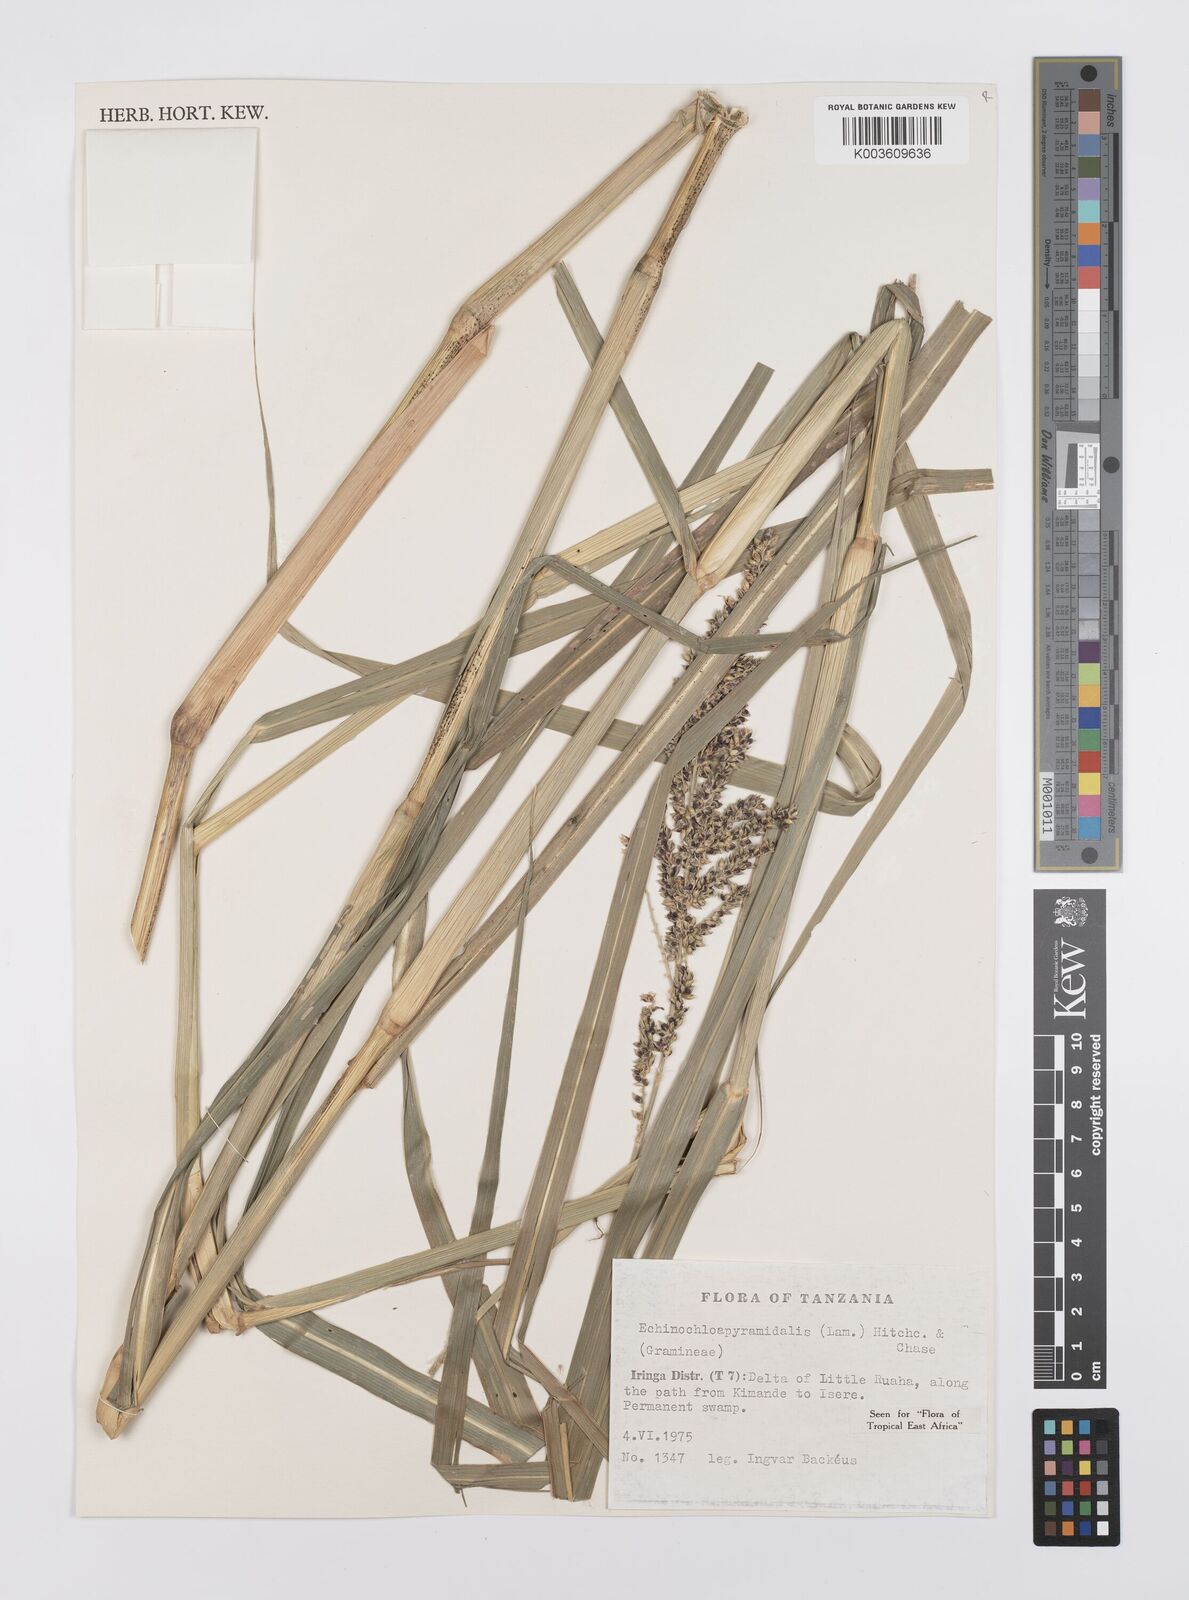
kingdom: Plantae
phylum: Tracheophyta
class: Liliopsida
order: Poales
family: Poaceae
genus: Echinochloa
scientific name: Echinochloa pyramidalis
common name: Antelope grass
